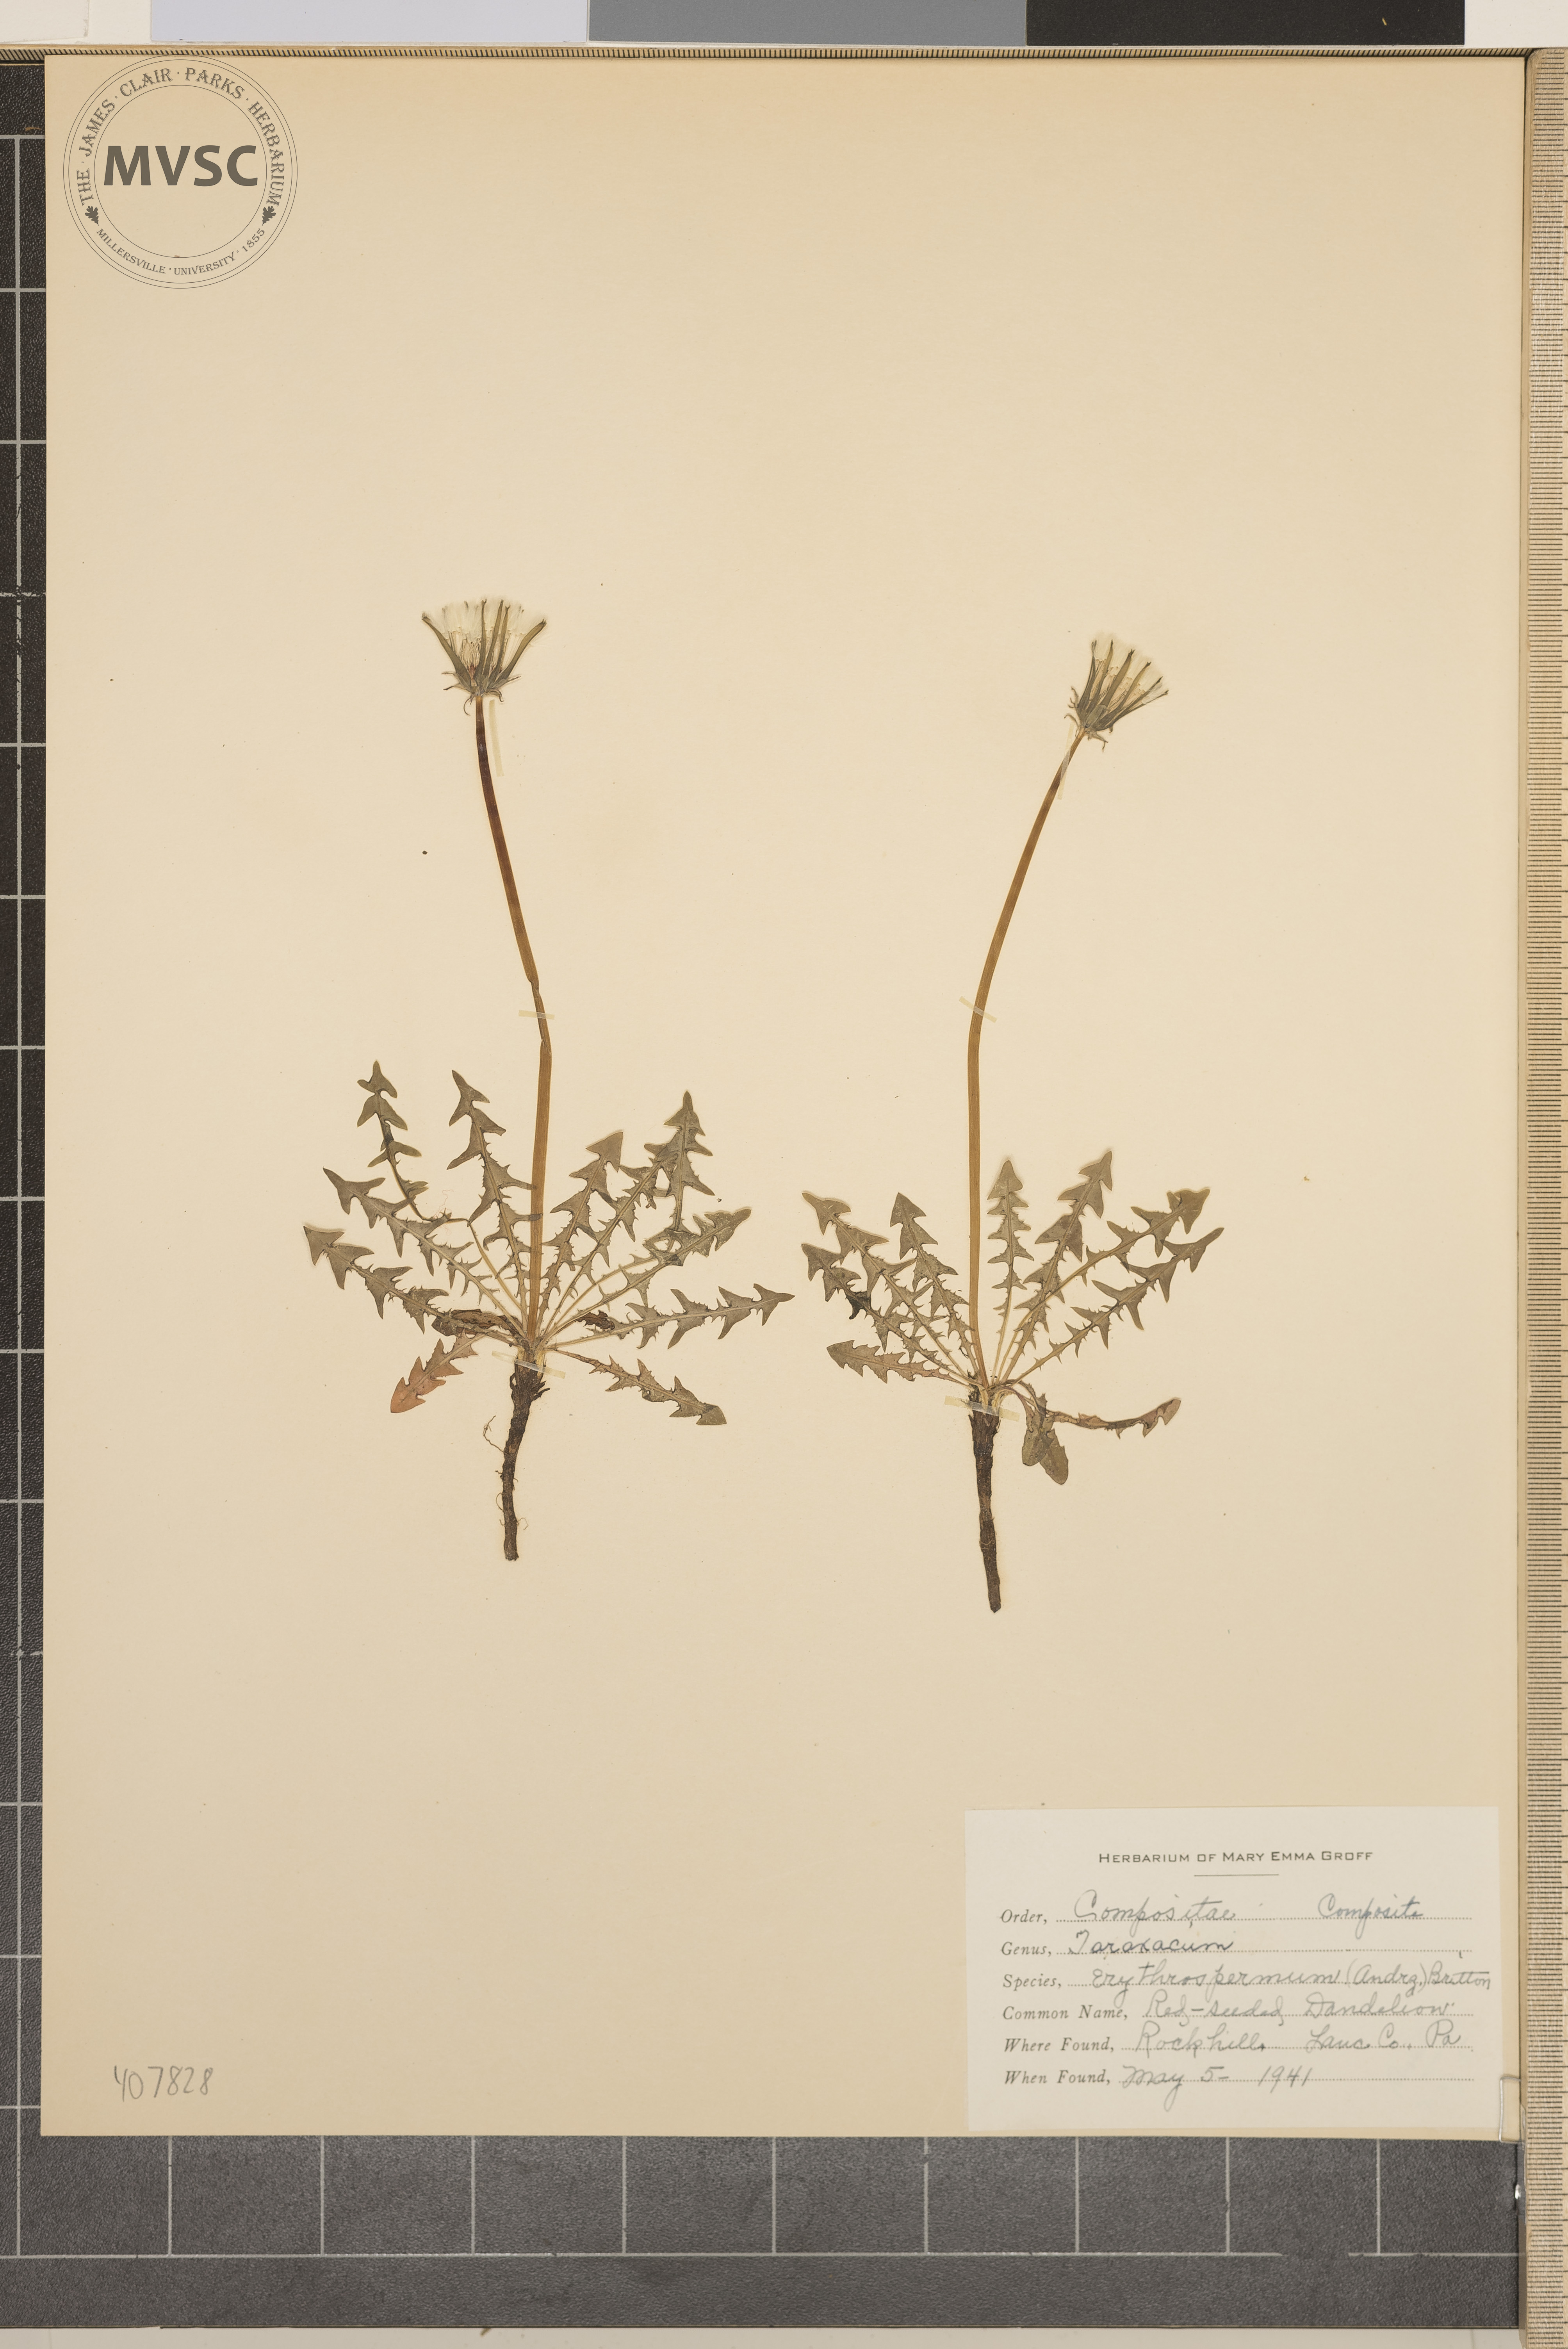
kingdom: Plantae
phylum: Tracheophyta
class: Magnoliopsida
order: Asterales
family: Asteraceae
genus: Taraxacum
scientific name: Taraxacum erythrospermum
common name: Red-seeded Dandelion
